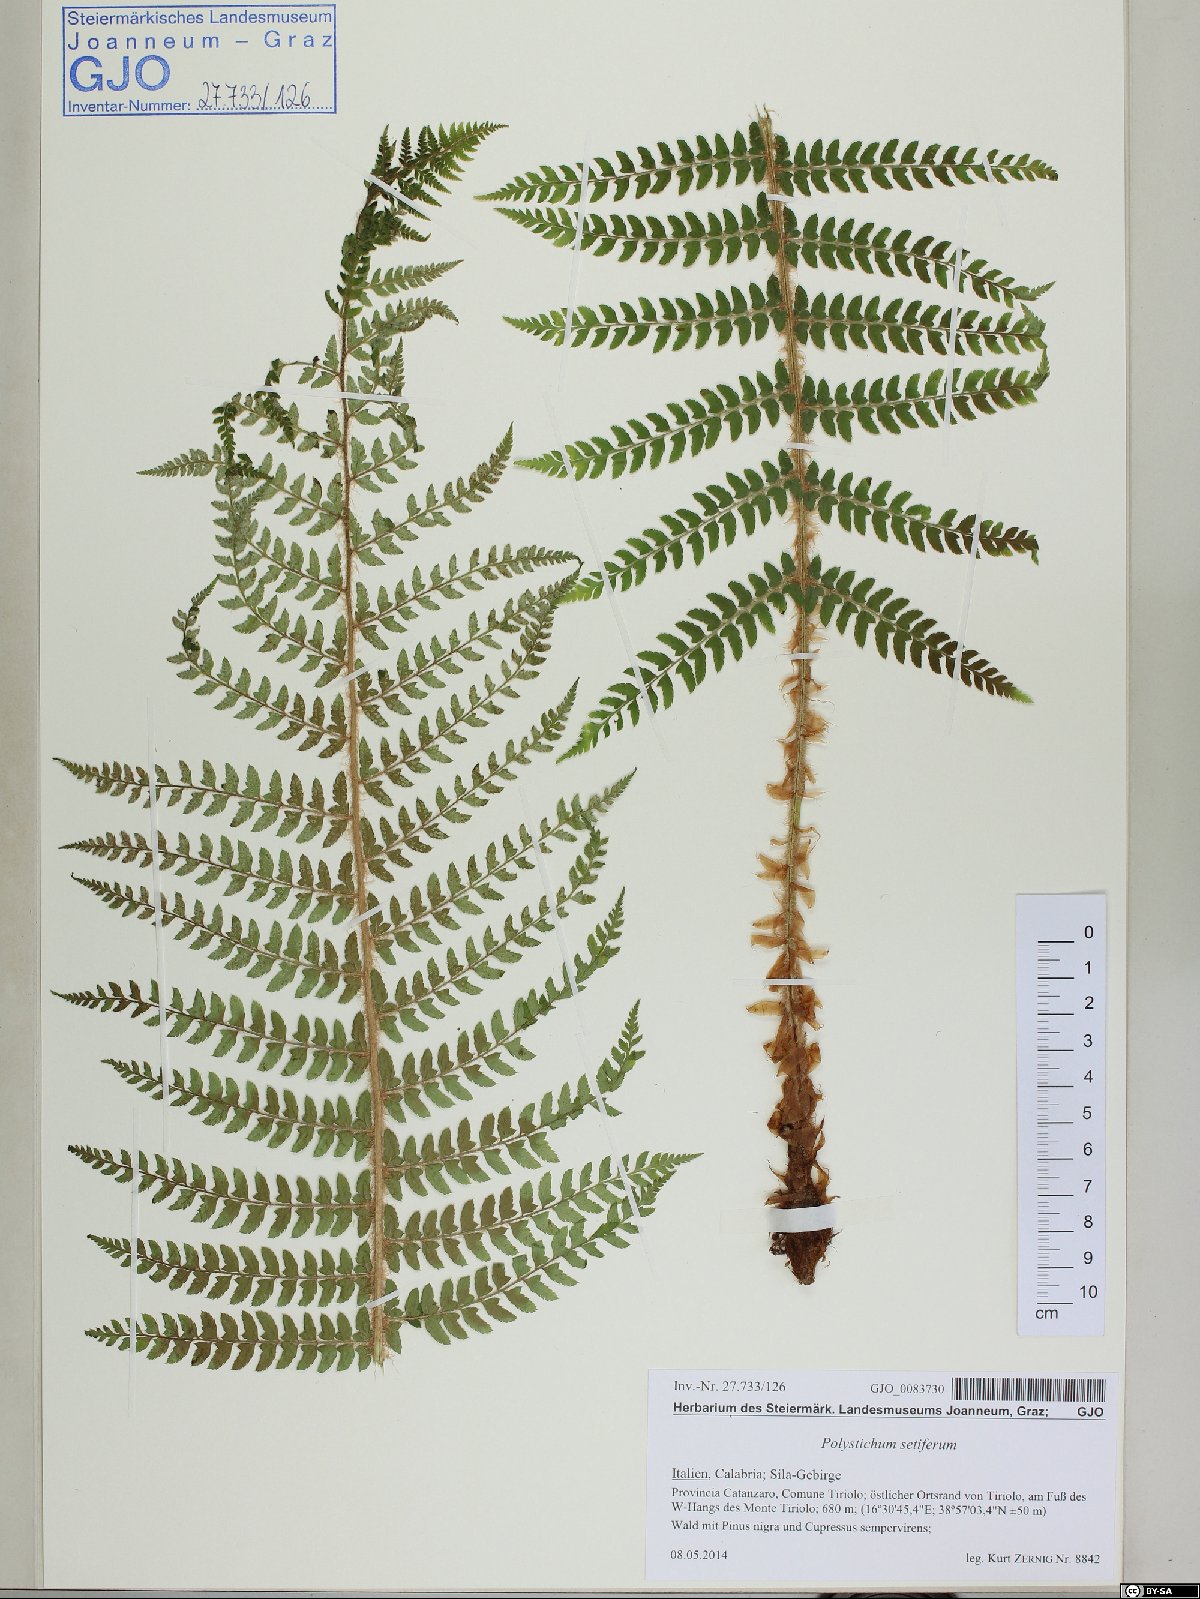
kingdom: Plantae
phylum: Tracheophyta
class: Polypodiopsida
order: Polypodiales
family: Dryopteridaceae
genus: Polystichum
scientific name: Polystichum setiferum
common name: Soft shield-fern
